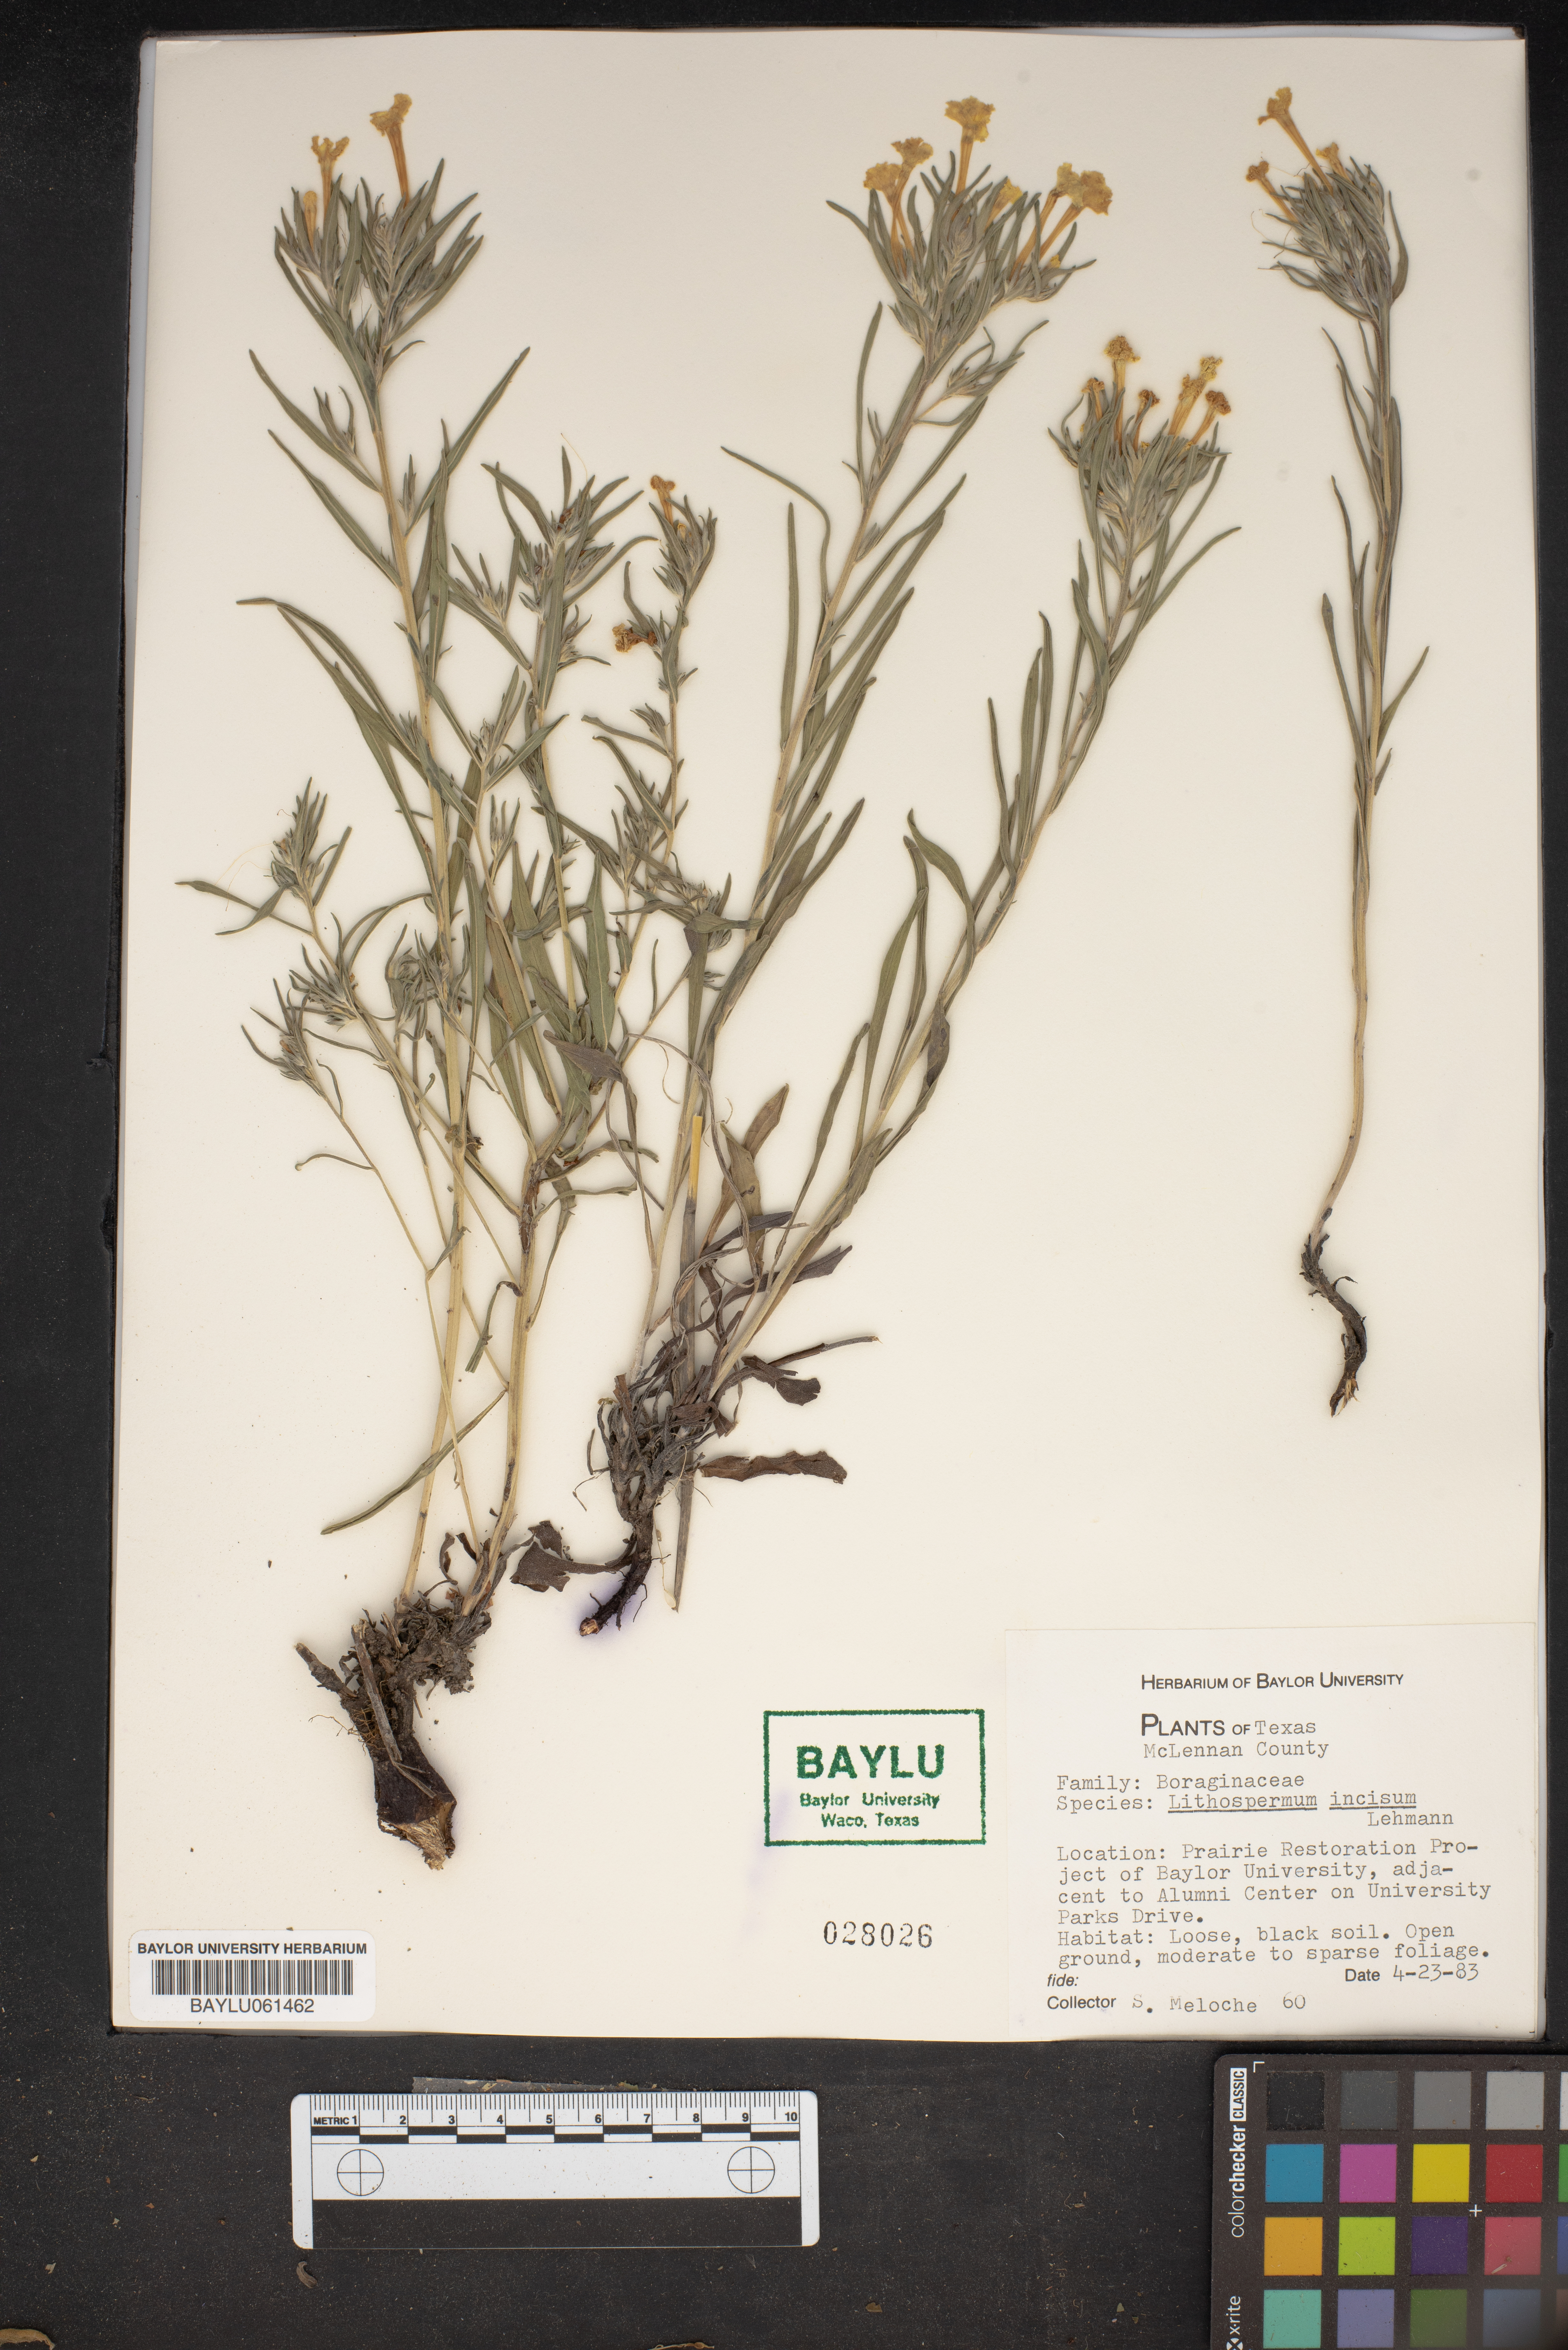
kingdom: Plantae
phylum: Tracheophyta
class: Magnoliopsida
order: Boraginales
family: Boraginaceae
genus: Lithospermum
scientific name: Lithospermum incisum
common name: Fringed gromwell
